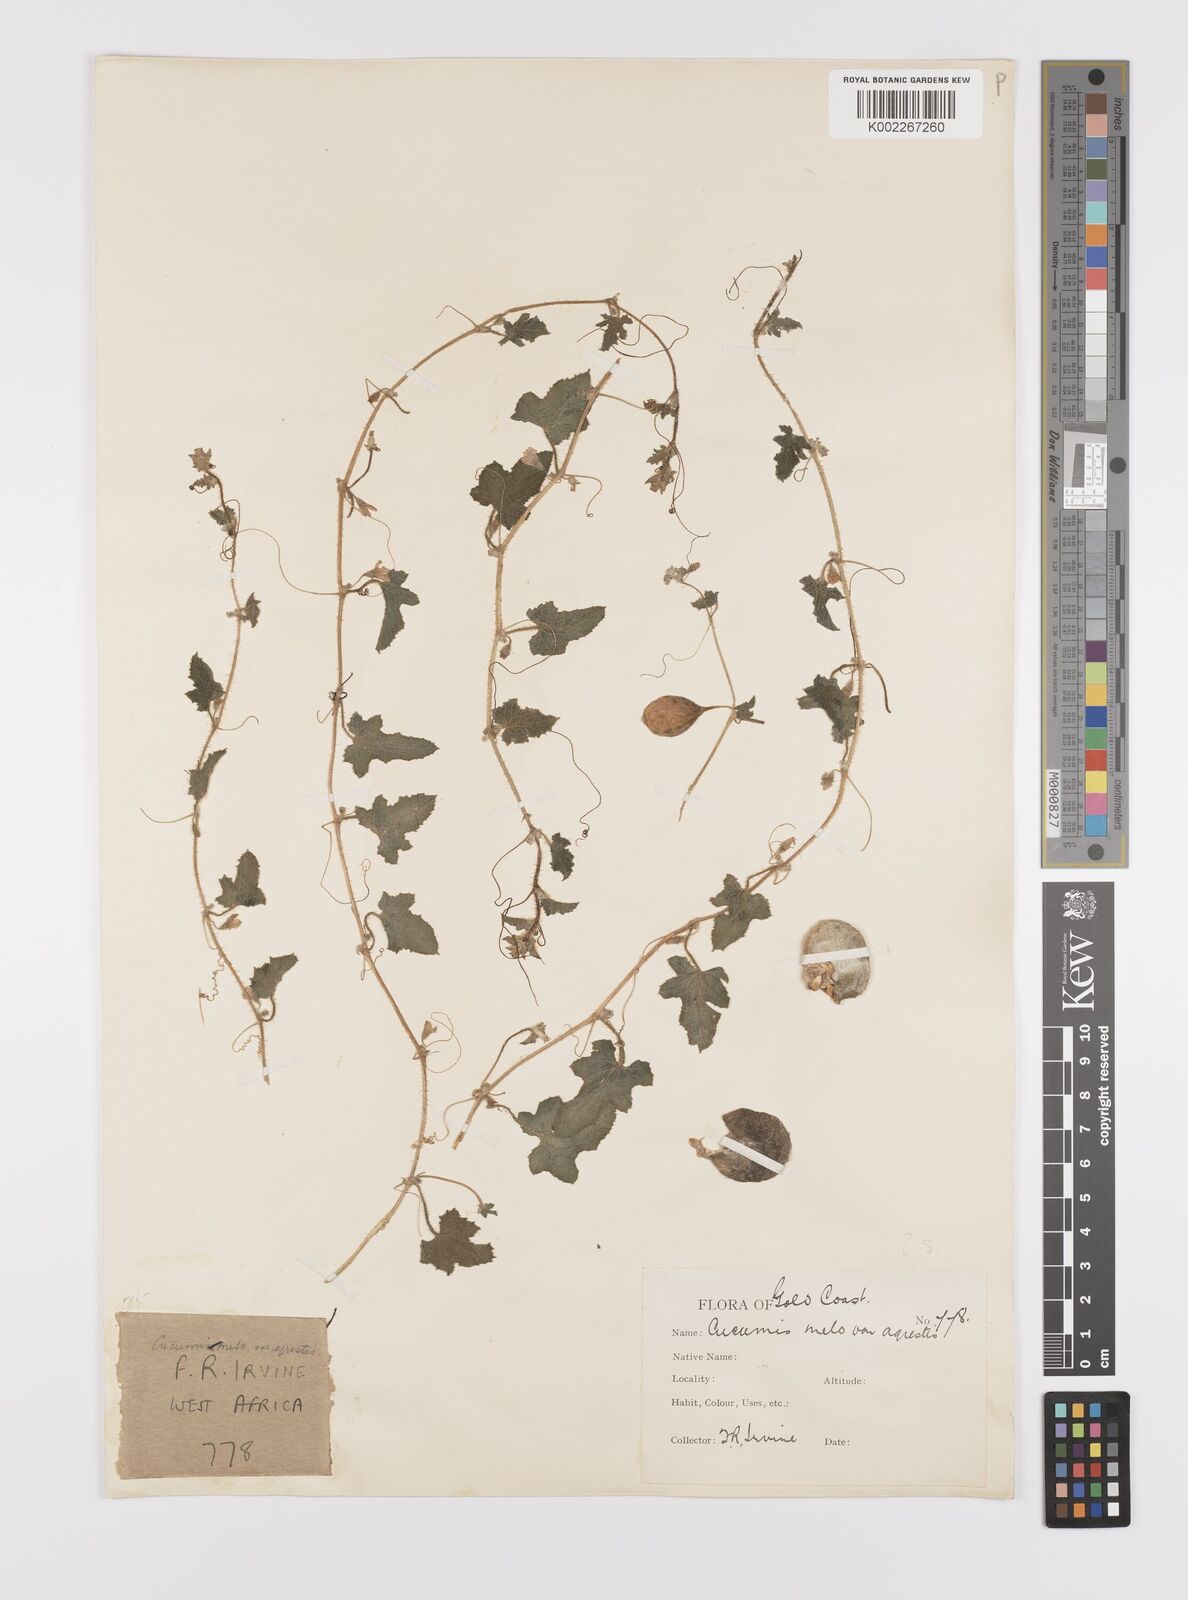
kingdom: Plantae
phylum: Tracheophyta
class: Magnoliopsida
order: Cucurbitales
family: Cucurbitaceae
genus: Cucumis
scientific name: Cucumis melo
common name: Melon
